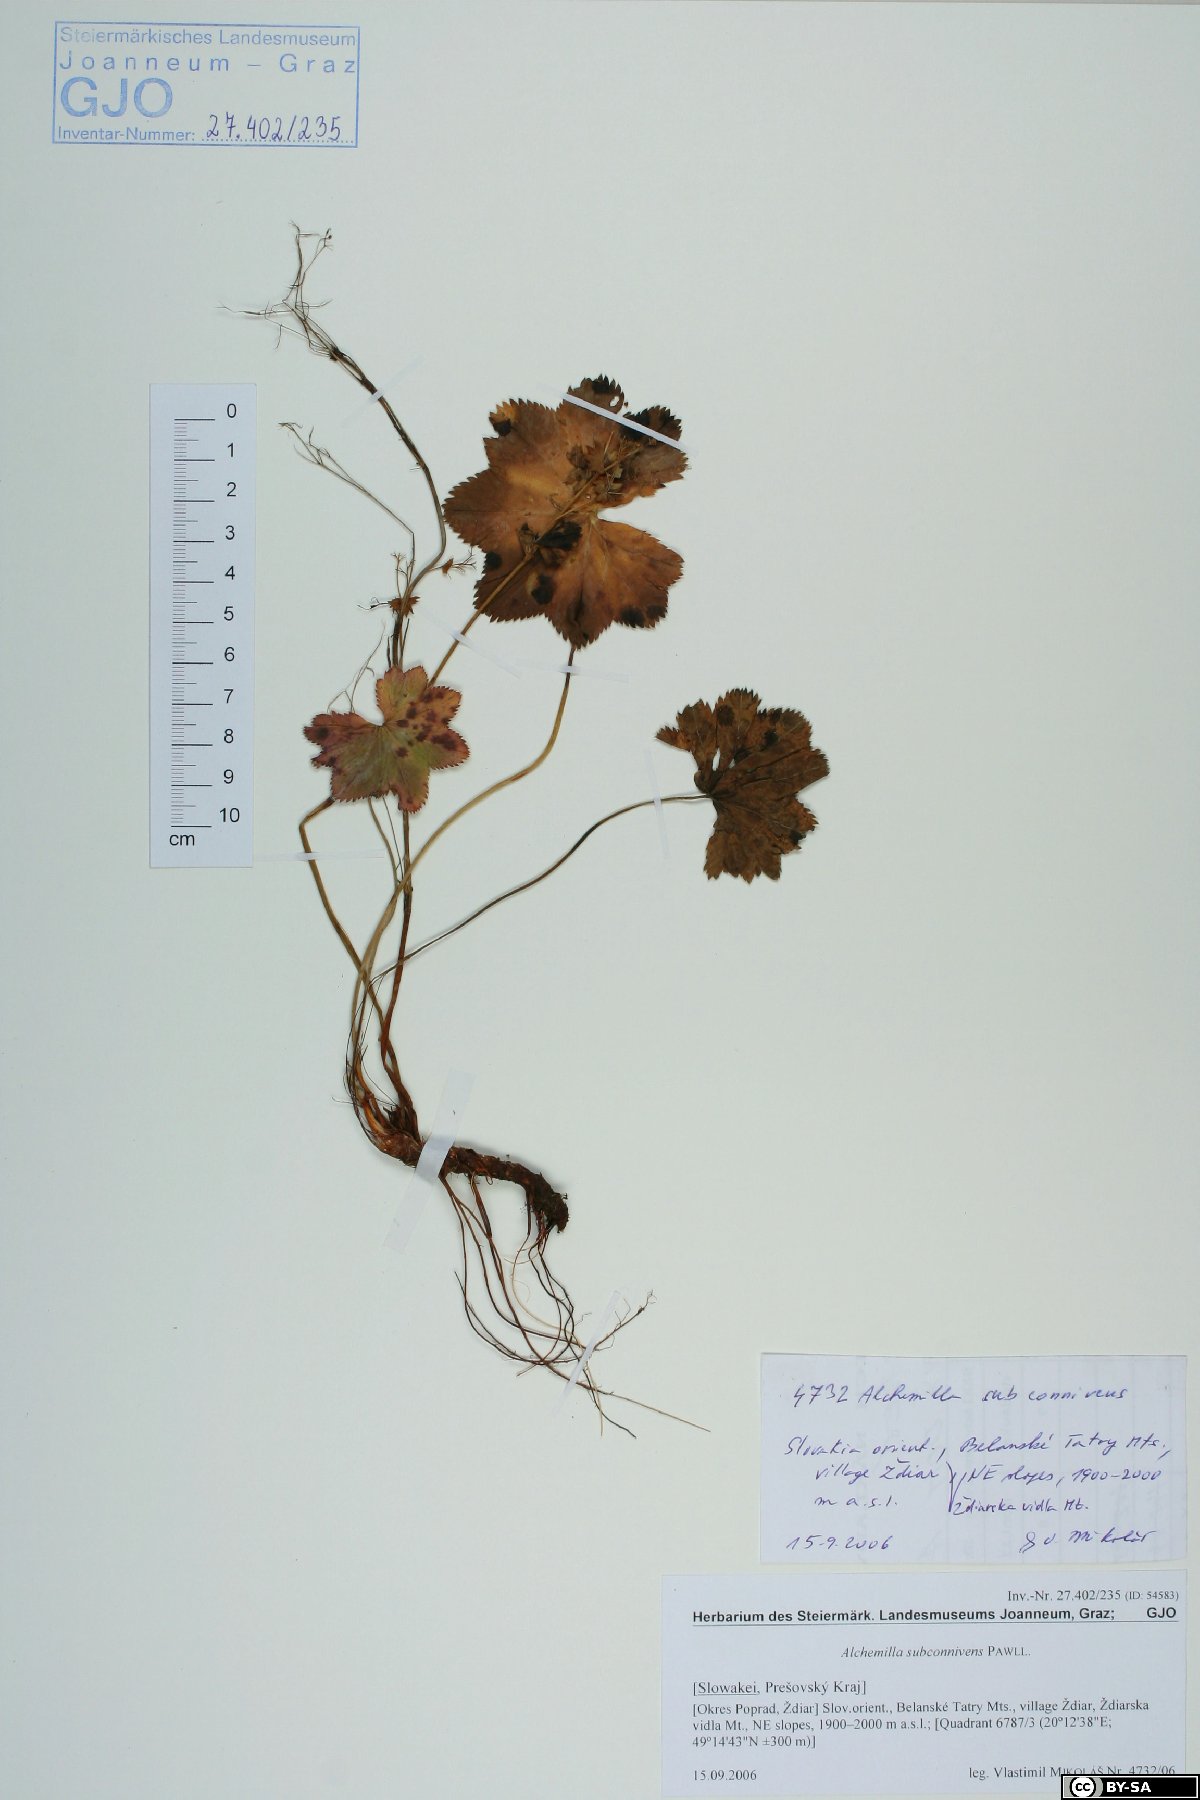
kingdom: Plantae
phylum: Tracheophyta
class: Magnoliopsida
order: Rosales
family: Rosaceae
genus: Alchemilla
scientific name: Alchemilla connivens
